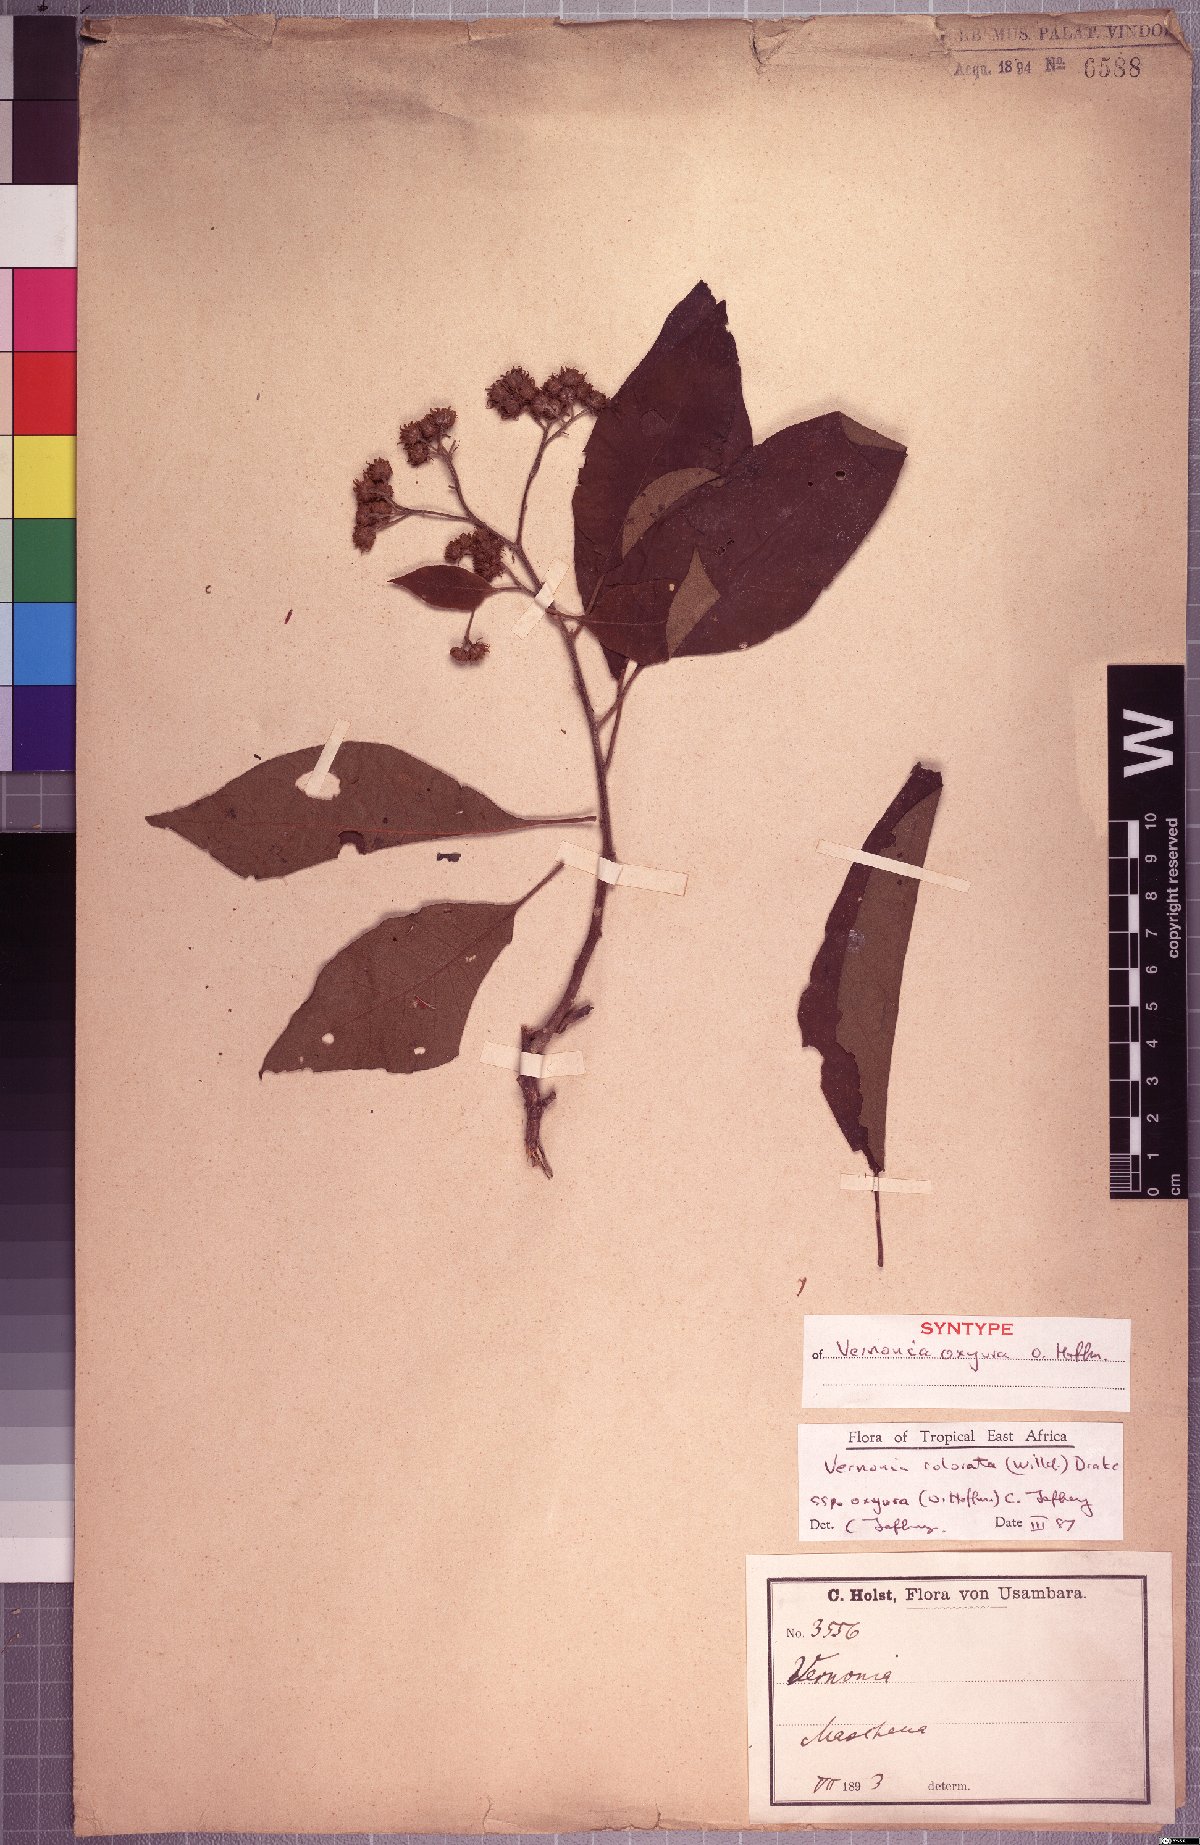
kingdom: Plantae
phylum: Tracheophyta
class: Magnoliopsida
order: Asterales
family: Asteraceae
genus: Vernonia
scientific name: Vernonia colorata
